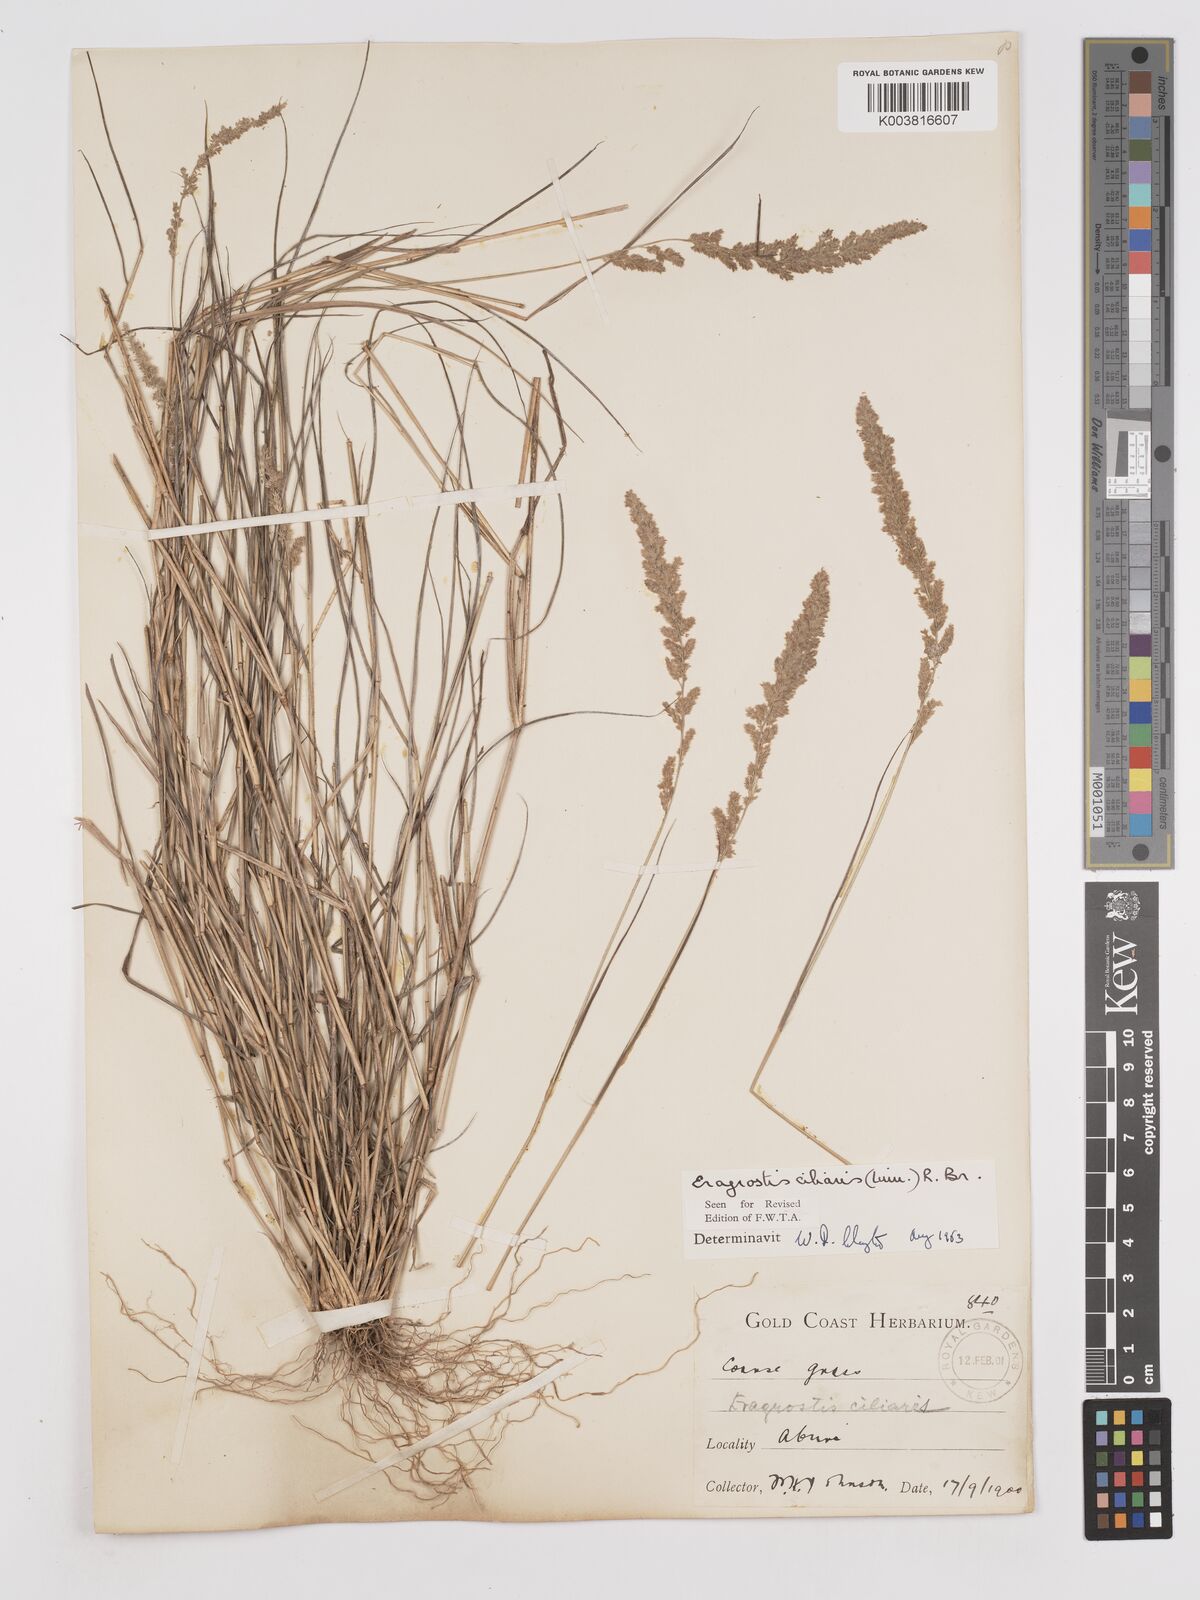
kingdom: Plantae
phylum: Tracheophyta
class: Liliopsida
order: Poales
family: Poaceae
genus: Eragrostis
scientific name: Eragrostis ciliaris
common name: Gophertail lovegrass
